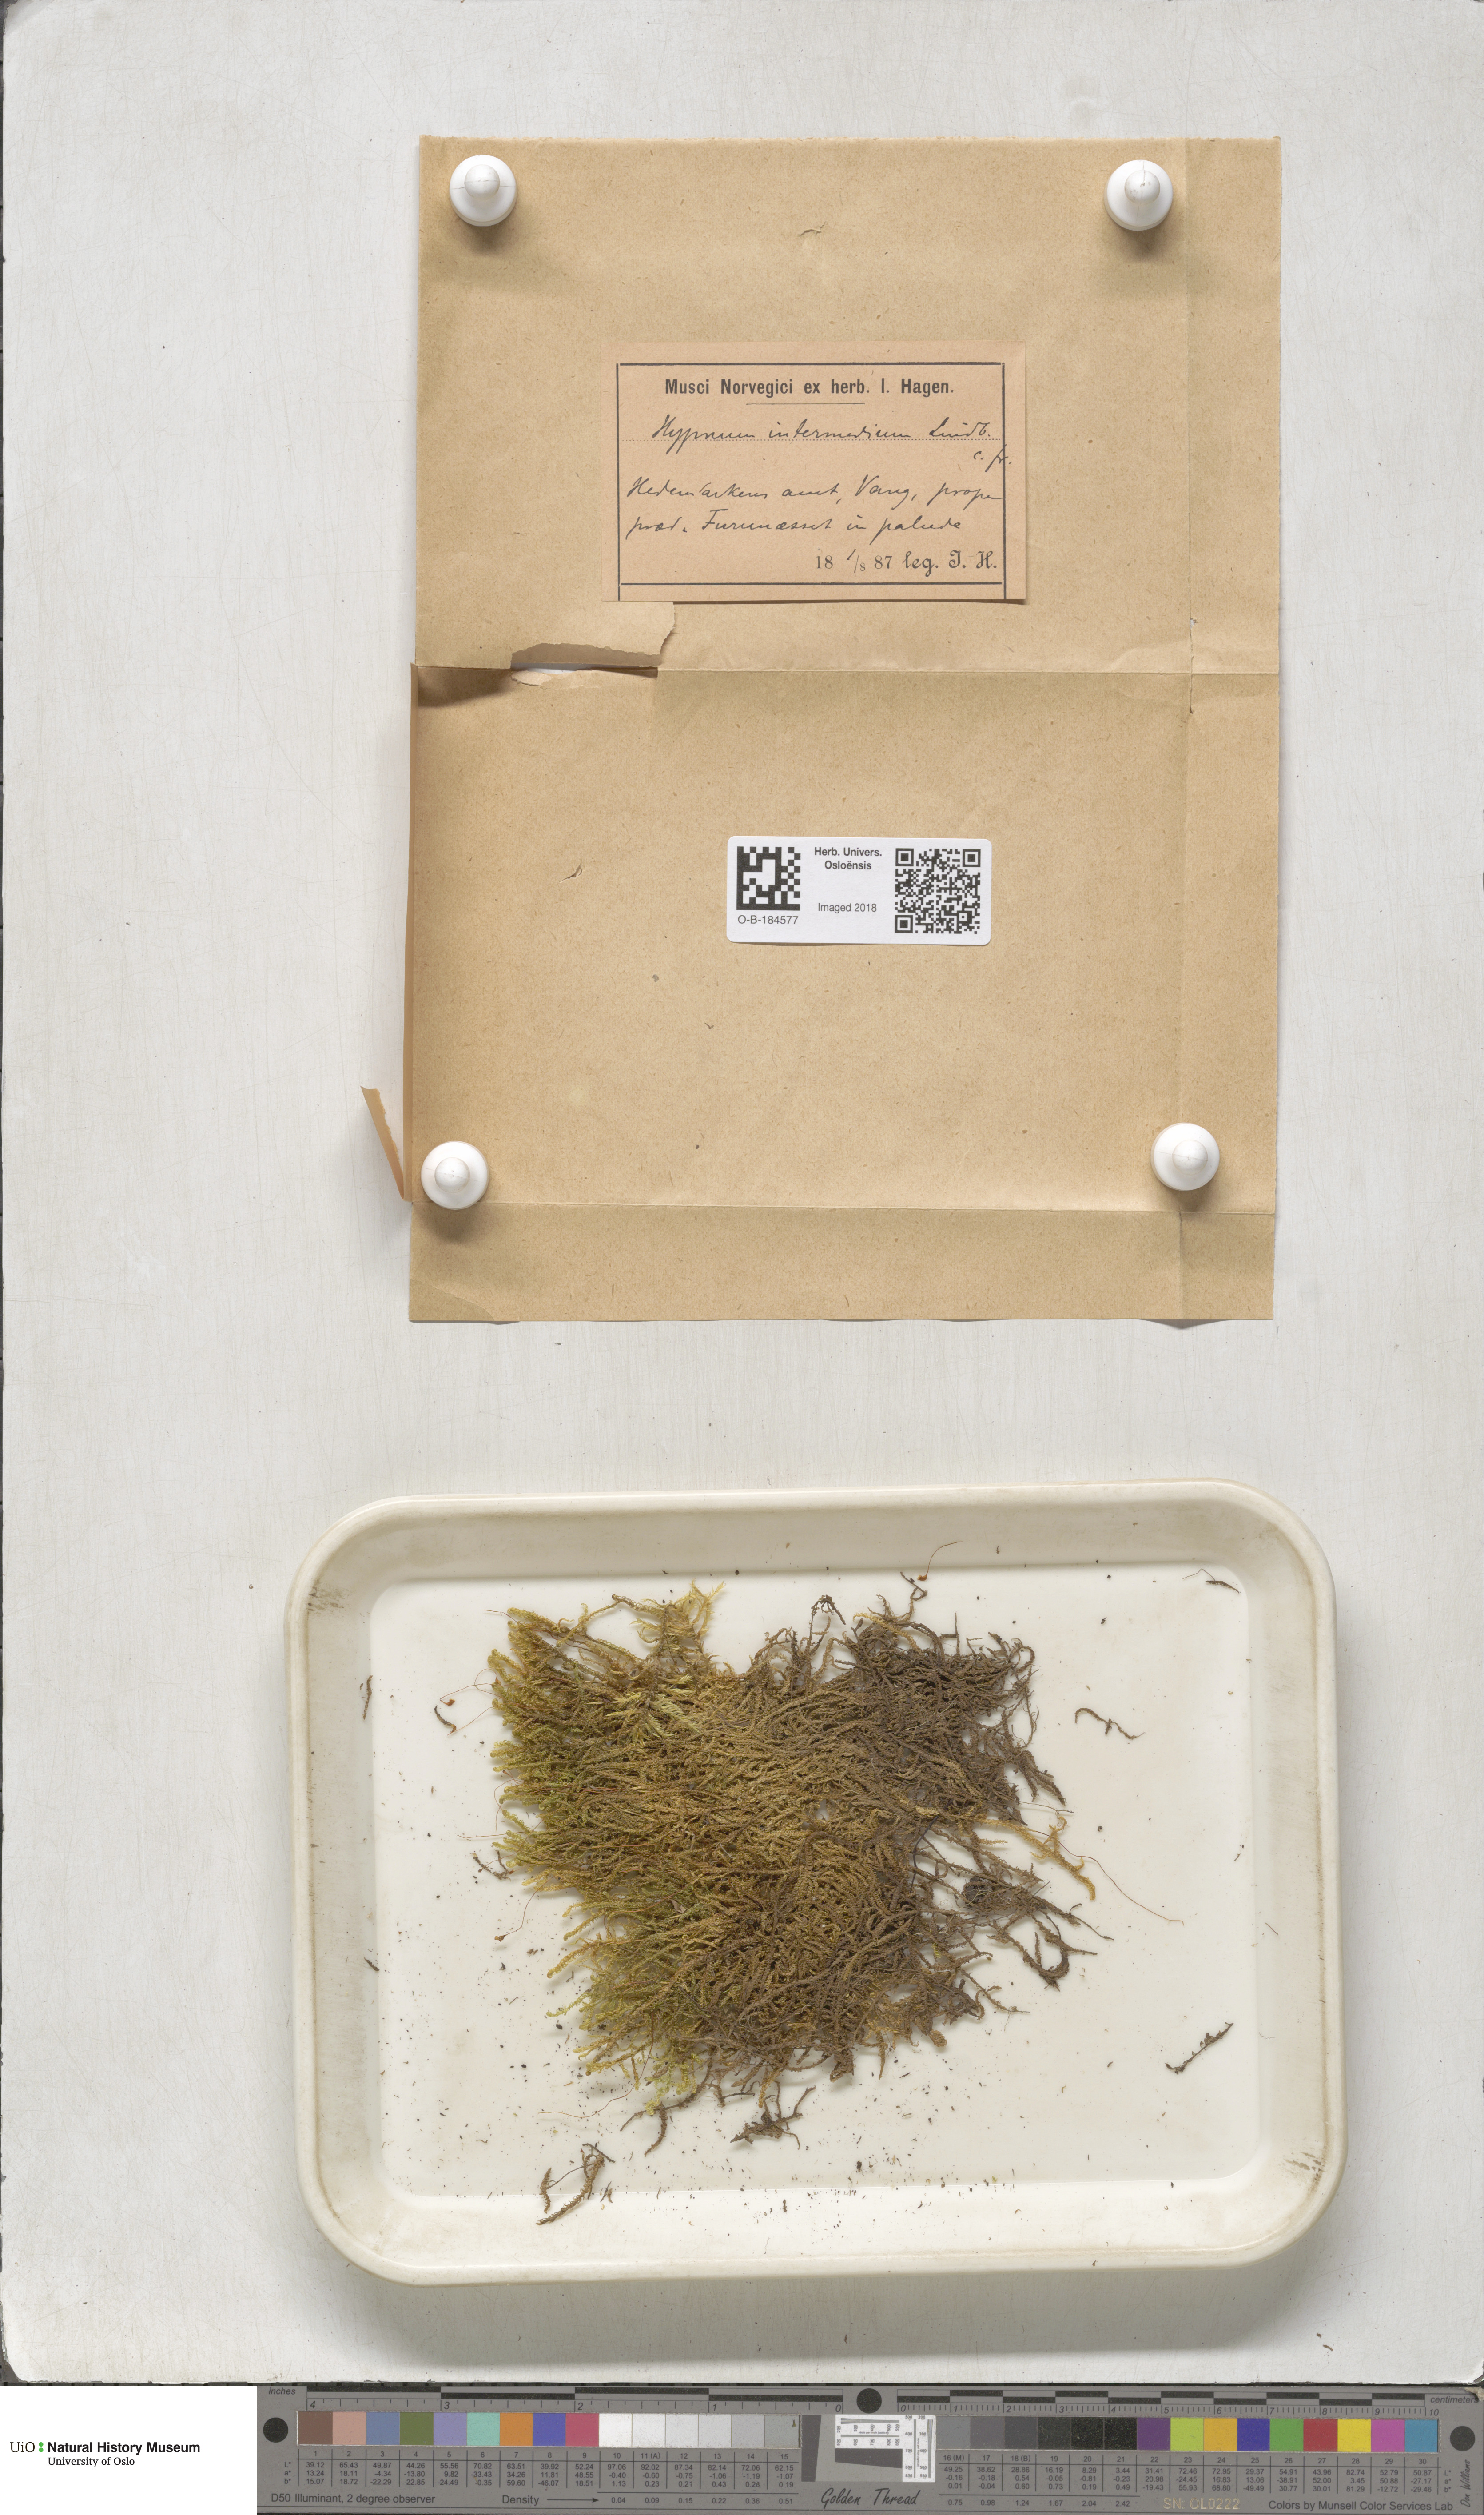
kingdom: Plantae
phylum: Bryophyta
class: Bryopsida
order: Hypnales
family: Scorpidiaceae
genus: Scorpidium
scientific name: Scorpidium cossonii
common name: Cosson's hook moss
